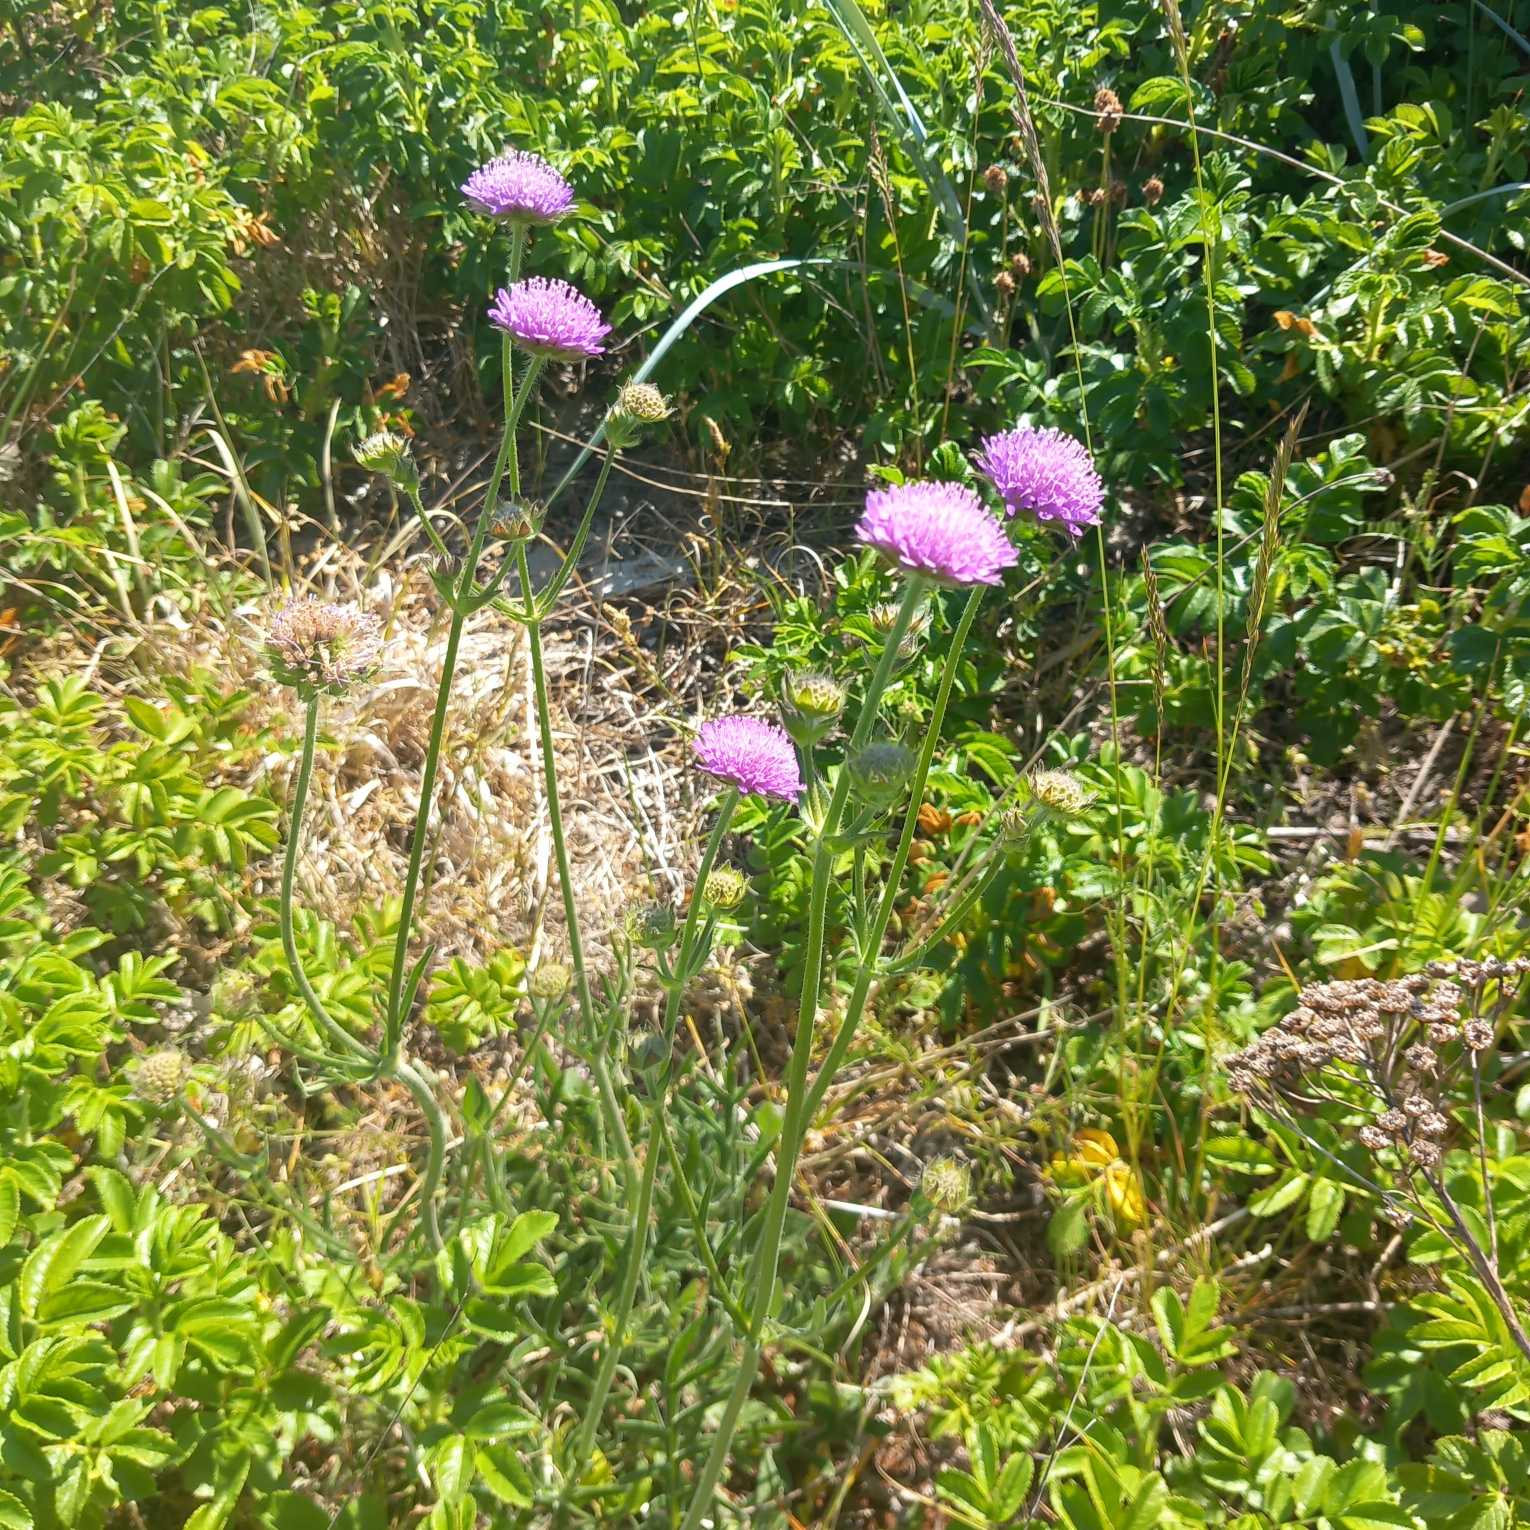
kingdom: Plantae
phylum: Tracheophyta
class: Magnoliopsida
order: Dipsacales
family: Caprifoliaceae
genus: Knautia
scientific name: Knautia arvensis
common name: Blåhat
